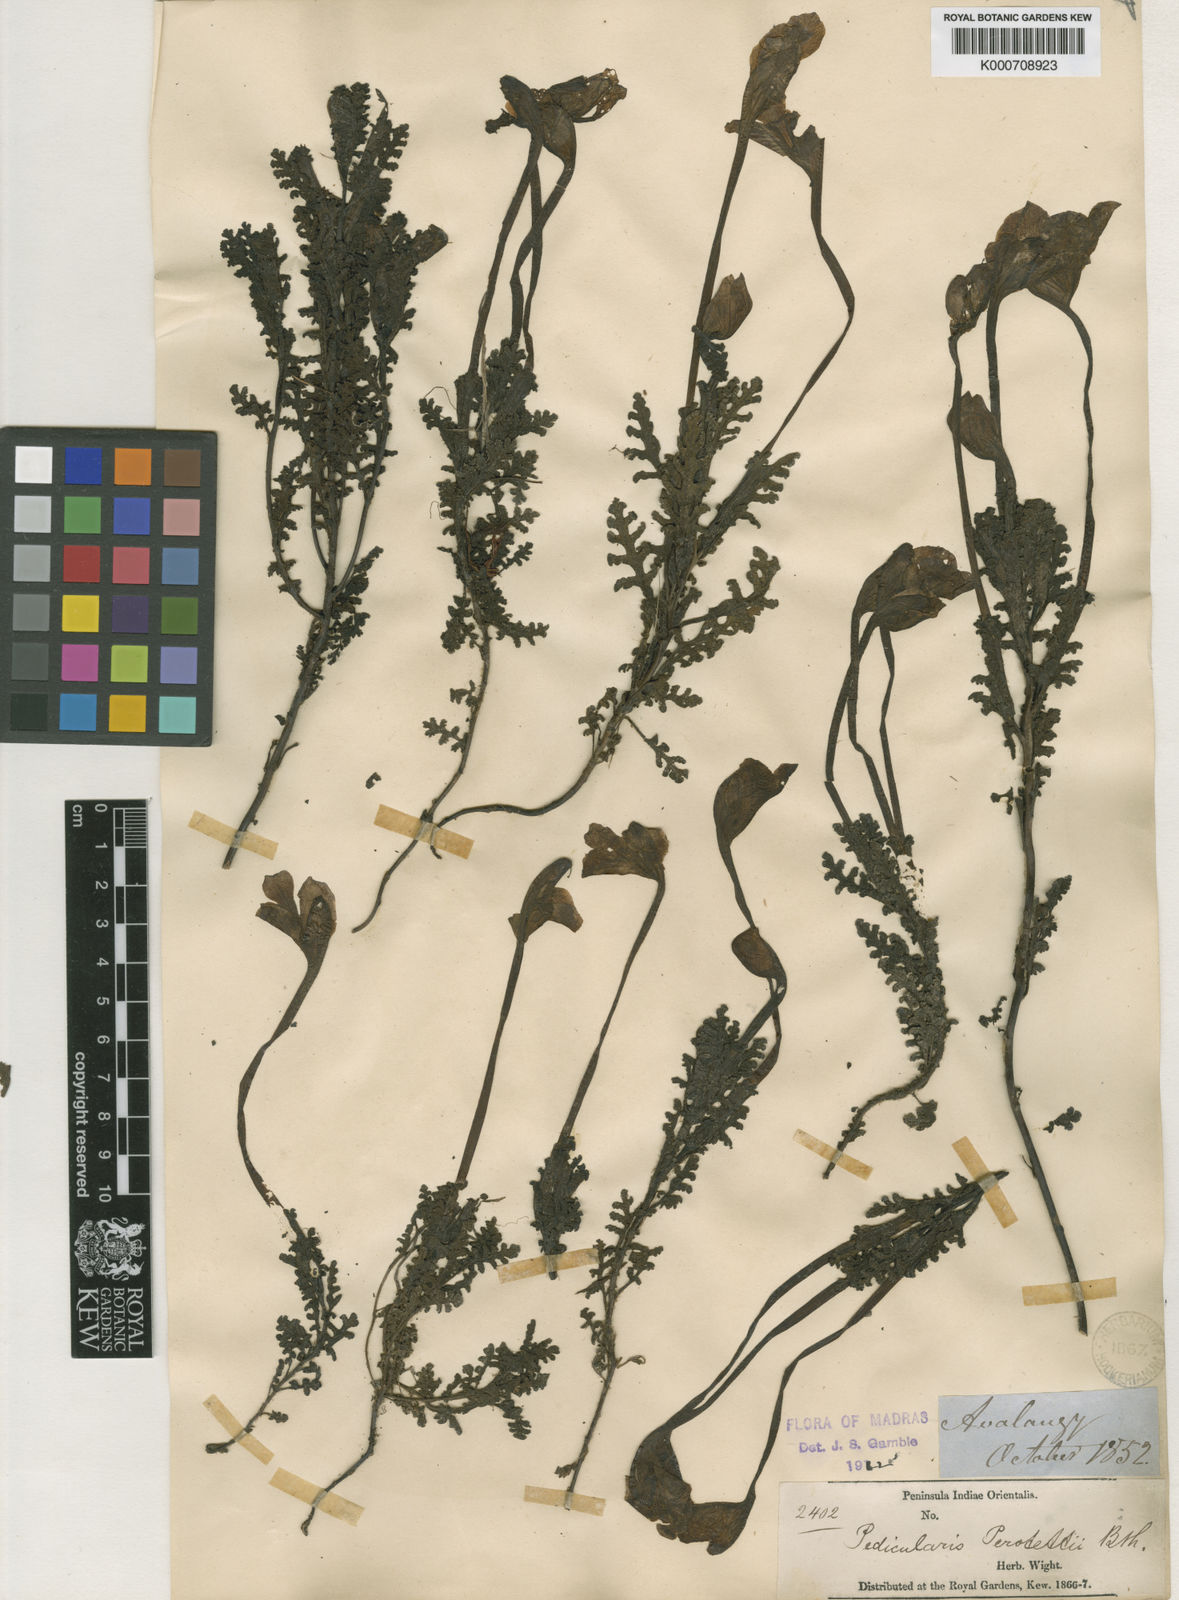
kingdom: Plantae
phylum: Tracheophyta
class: Magnoliopsida
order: Lamiales
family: Orobanchaceae
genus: Pedicularis
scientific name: Pedicularis perrottetii
